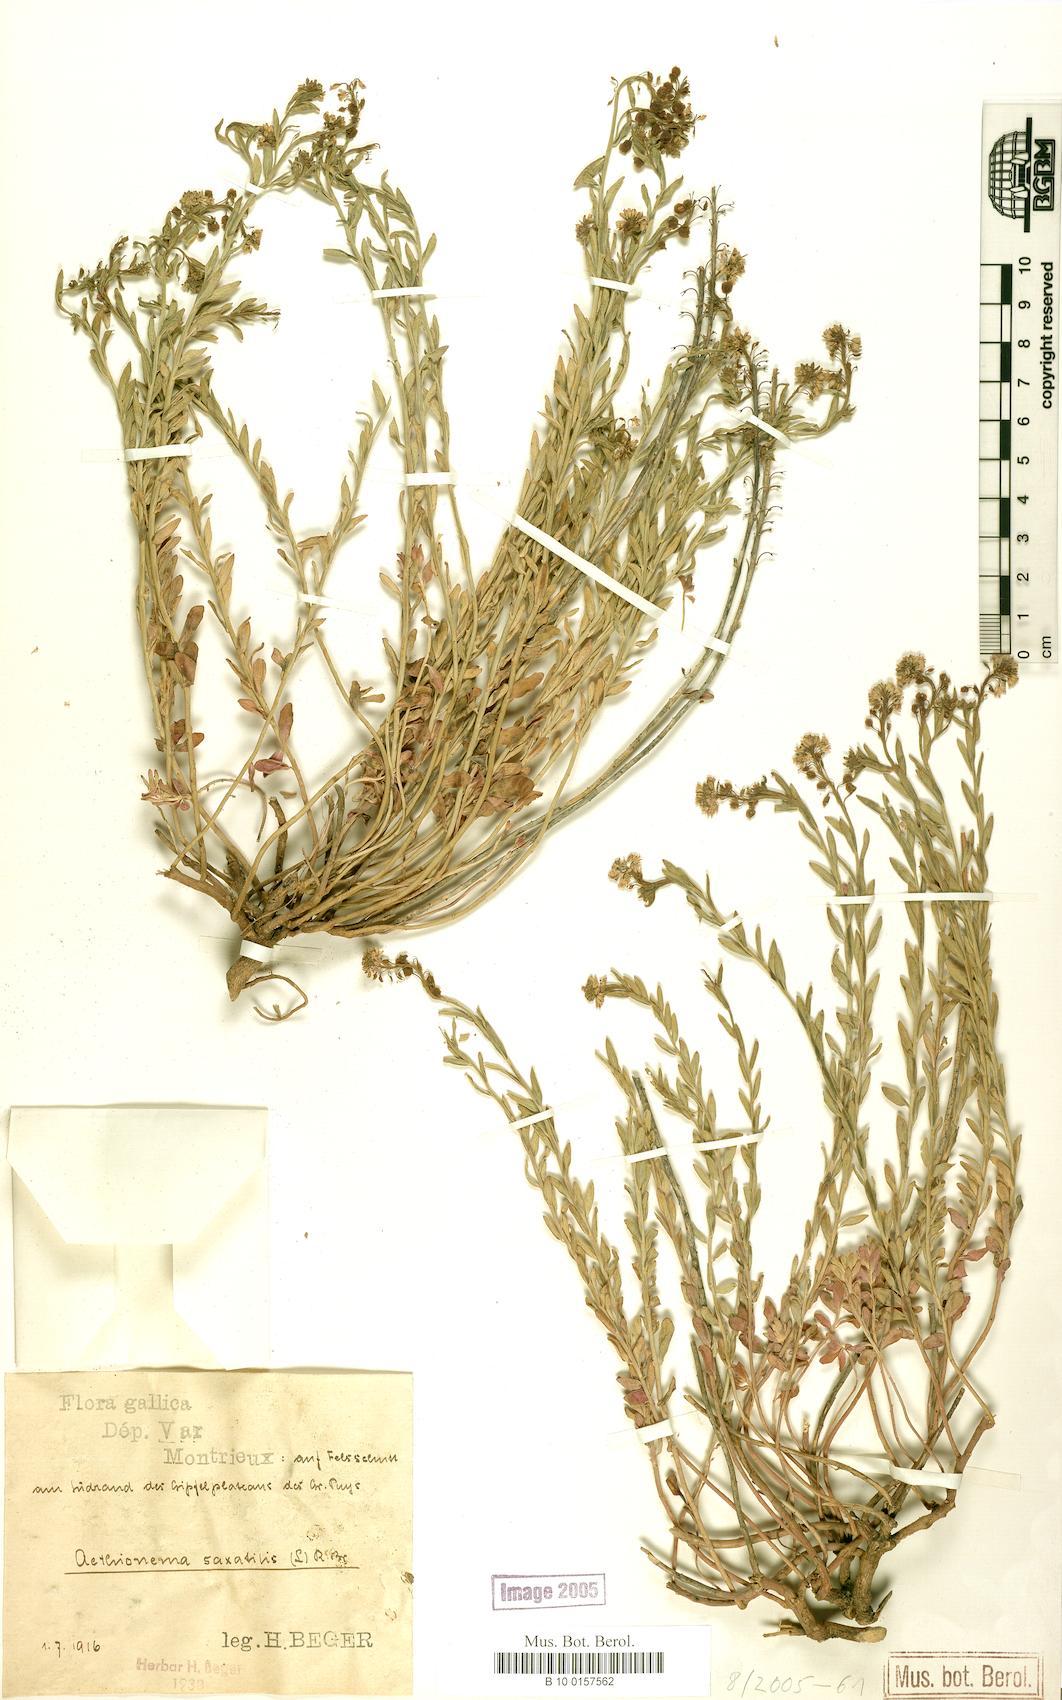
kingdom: Plantae
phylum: Tracheophyta
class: Magnoliopsida
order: Brassicales
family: Brassicaceae
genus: Aethionema
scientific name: Aethionema saxatile
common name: Burnt candytuft
